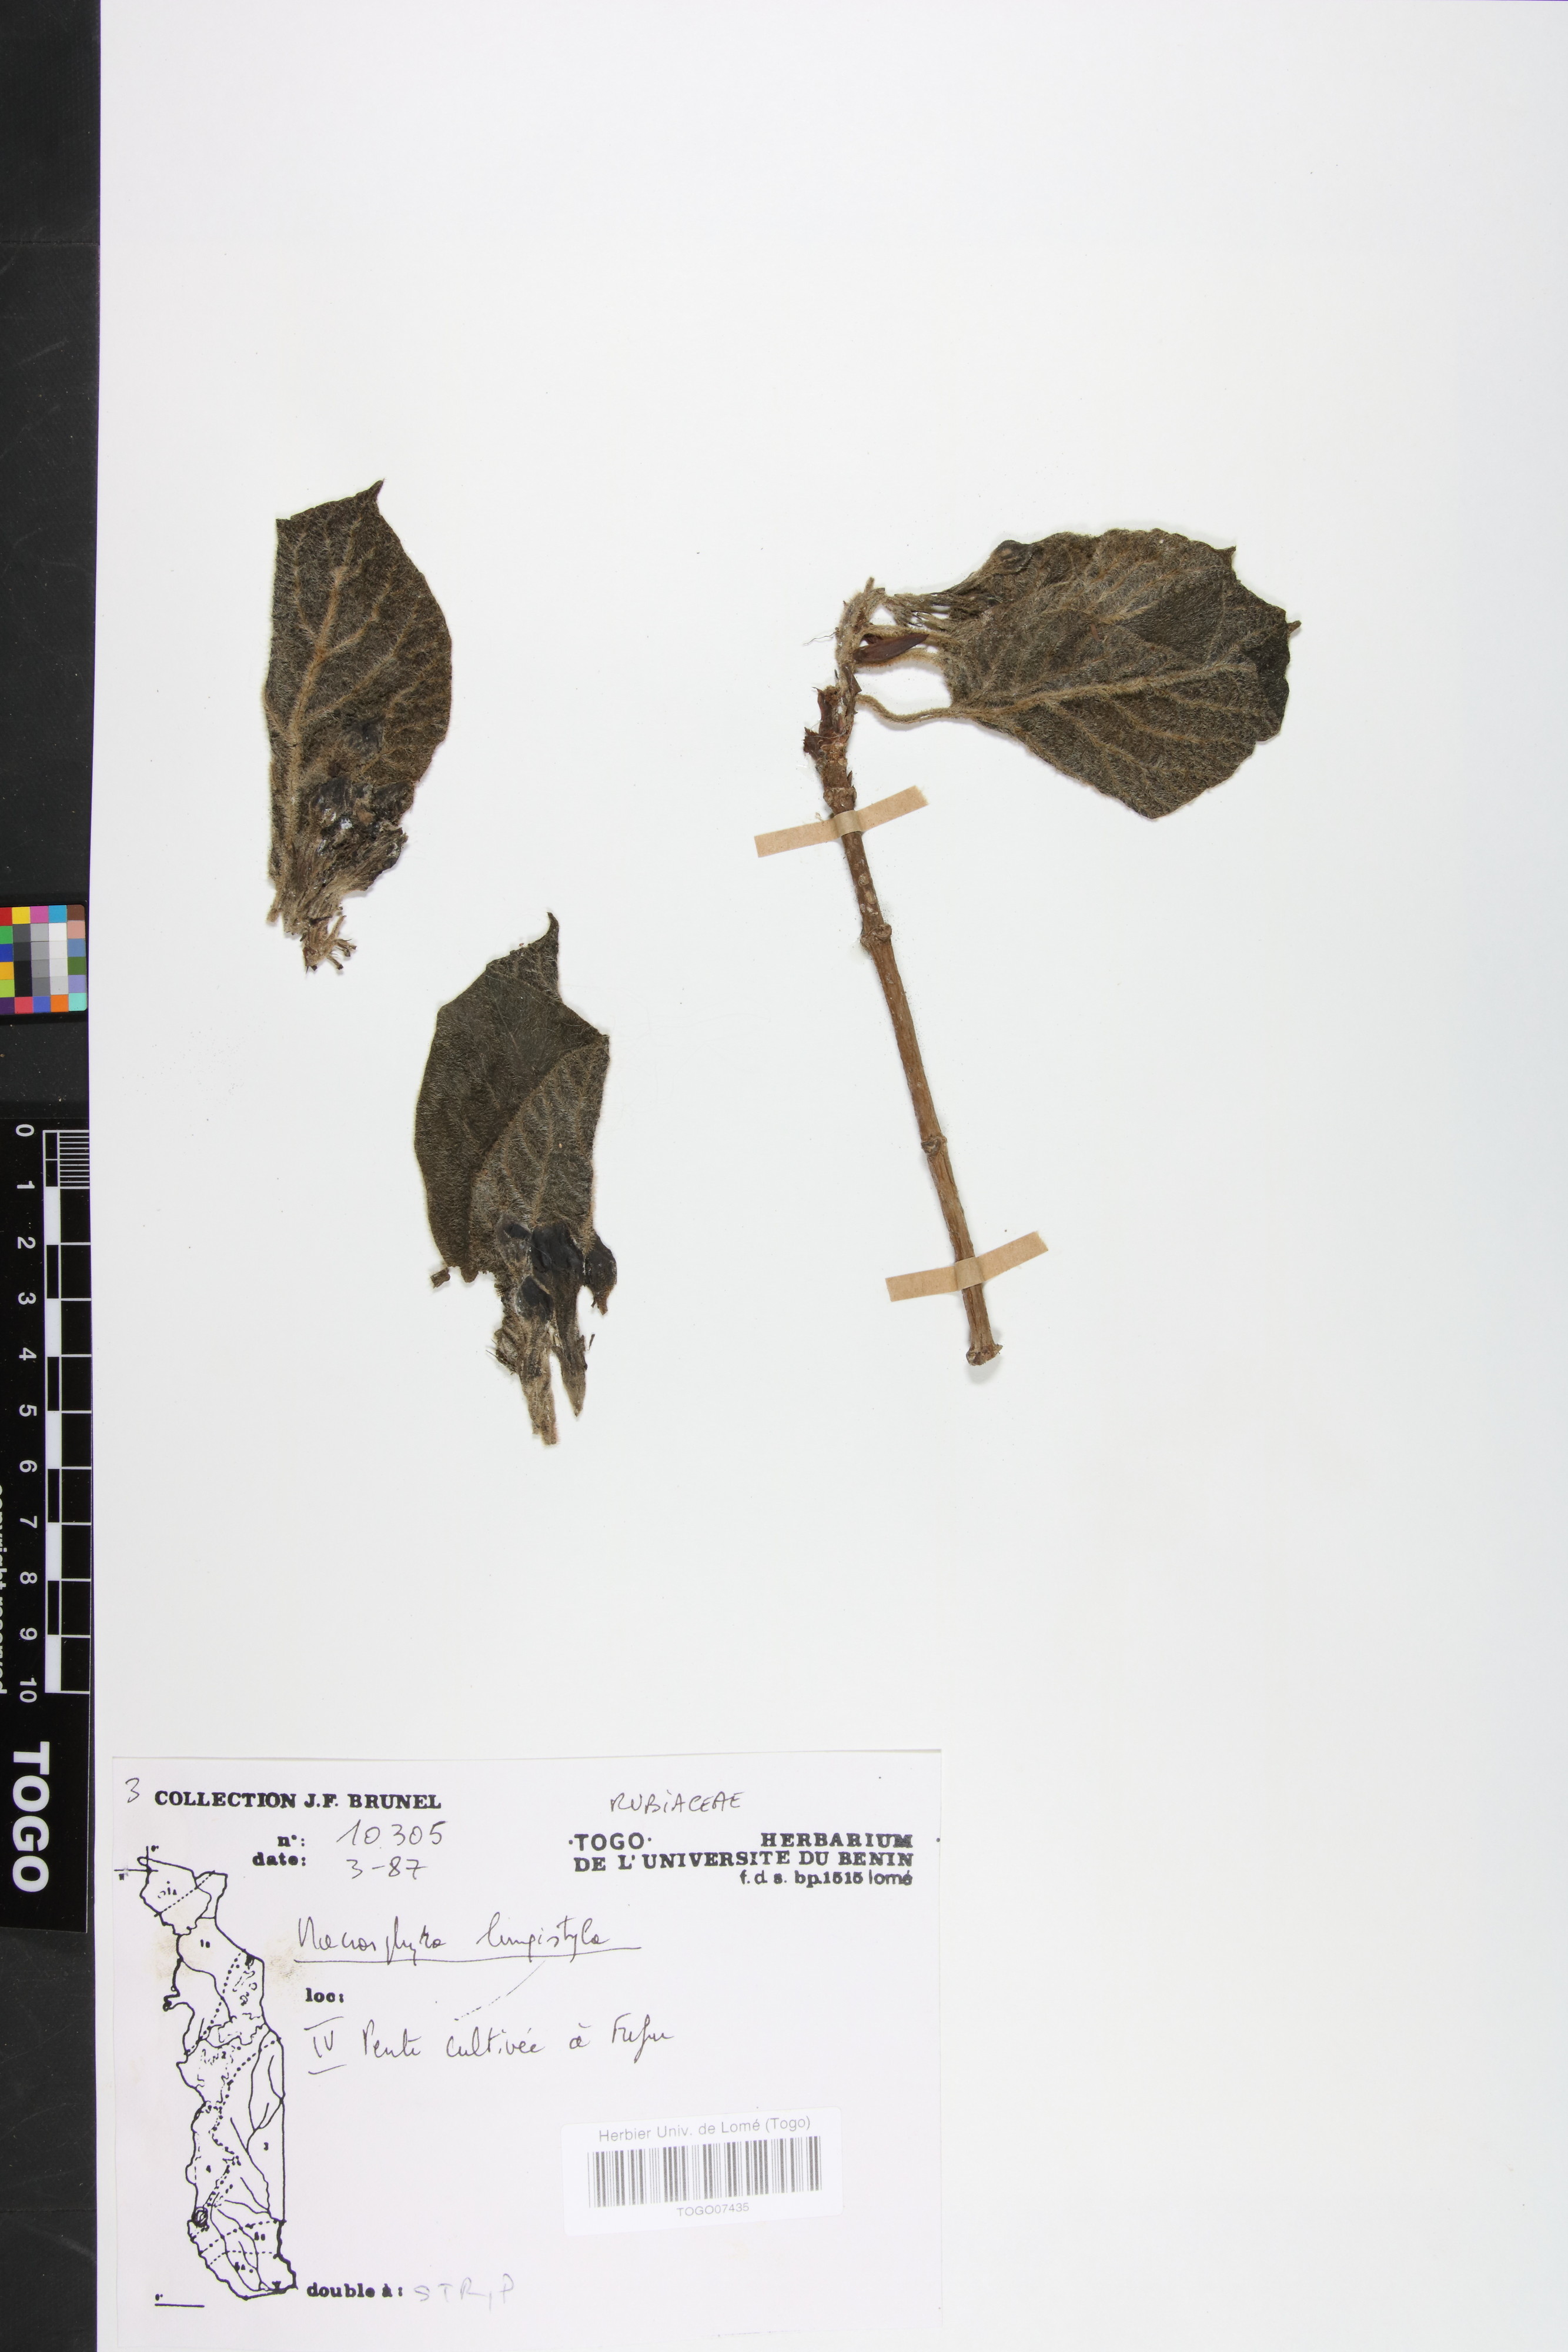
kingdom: Plantae
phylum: Tracheophyta
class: Magnoliopsida
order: Gentianales
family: Rubiaceae
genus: Macrosphyra
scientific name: Macrosphyra longistyla
